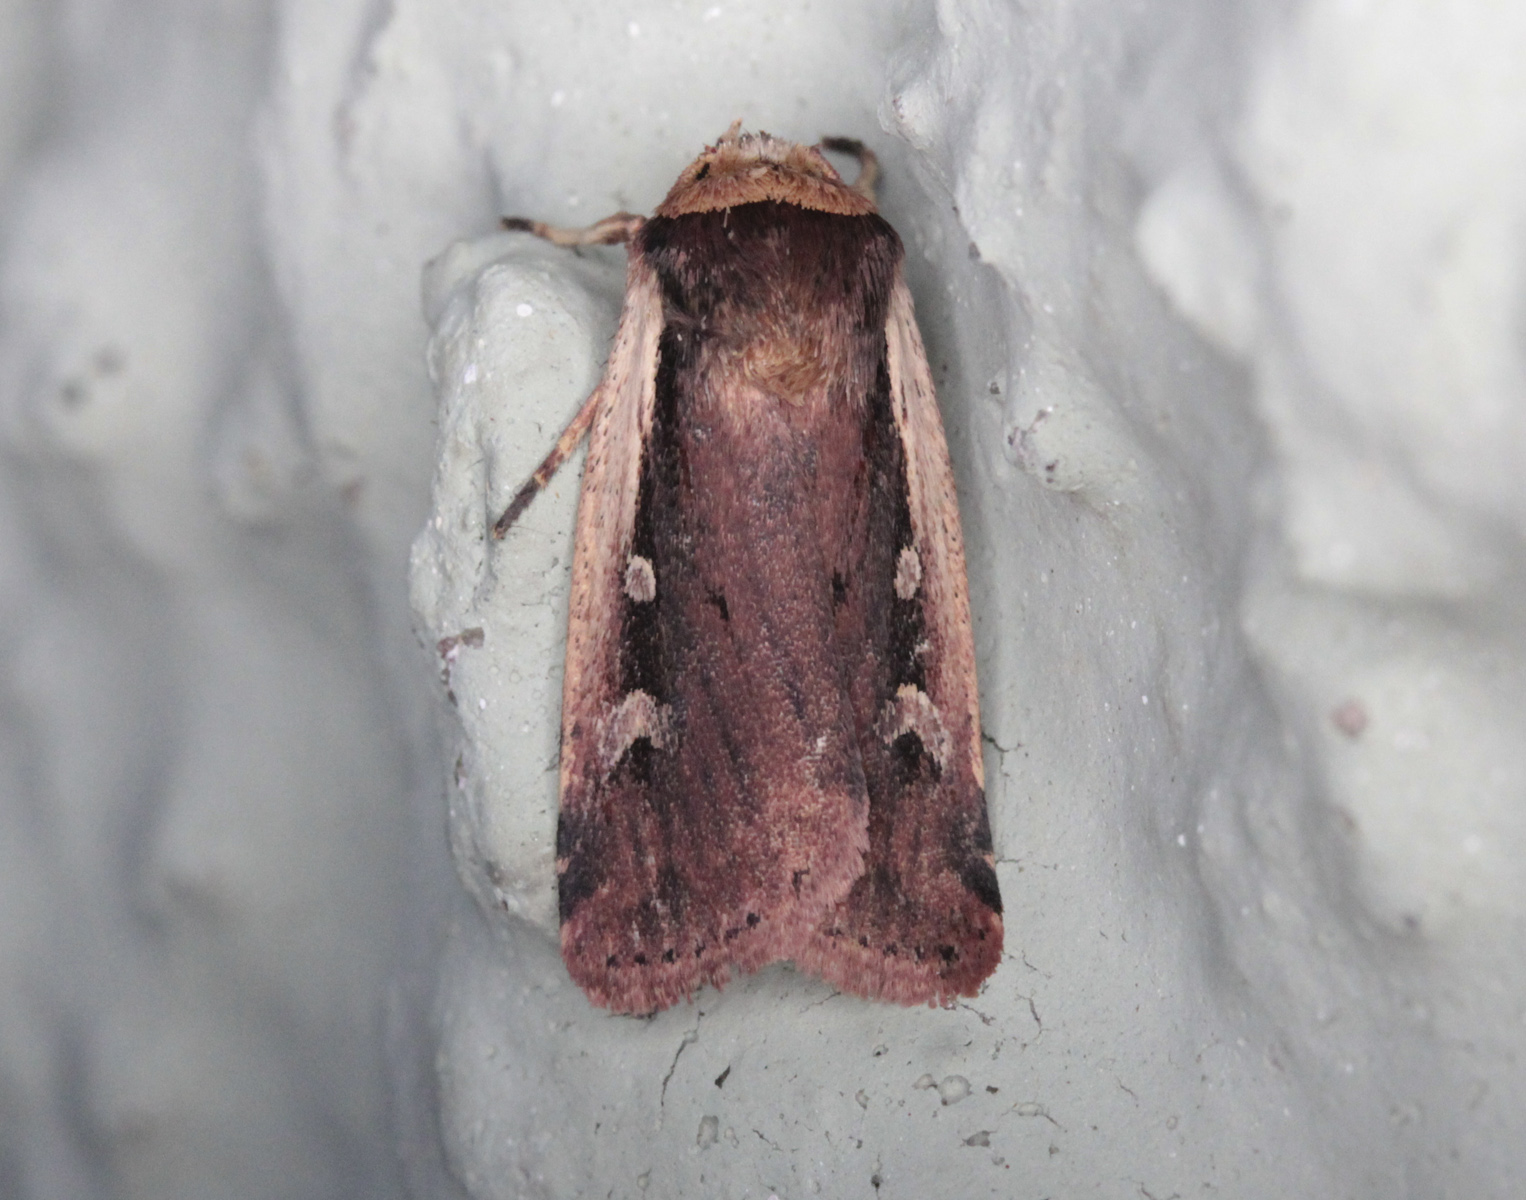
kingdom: Animalia
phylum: Arthropoda
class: Insecta
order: Lepidoptera
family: Noctuidae
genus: Ochropleura
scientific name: Ochropleura plecta
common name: Flame shoulder
